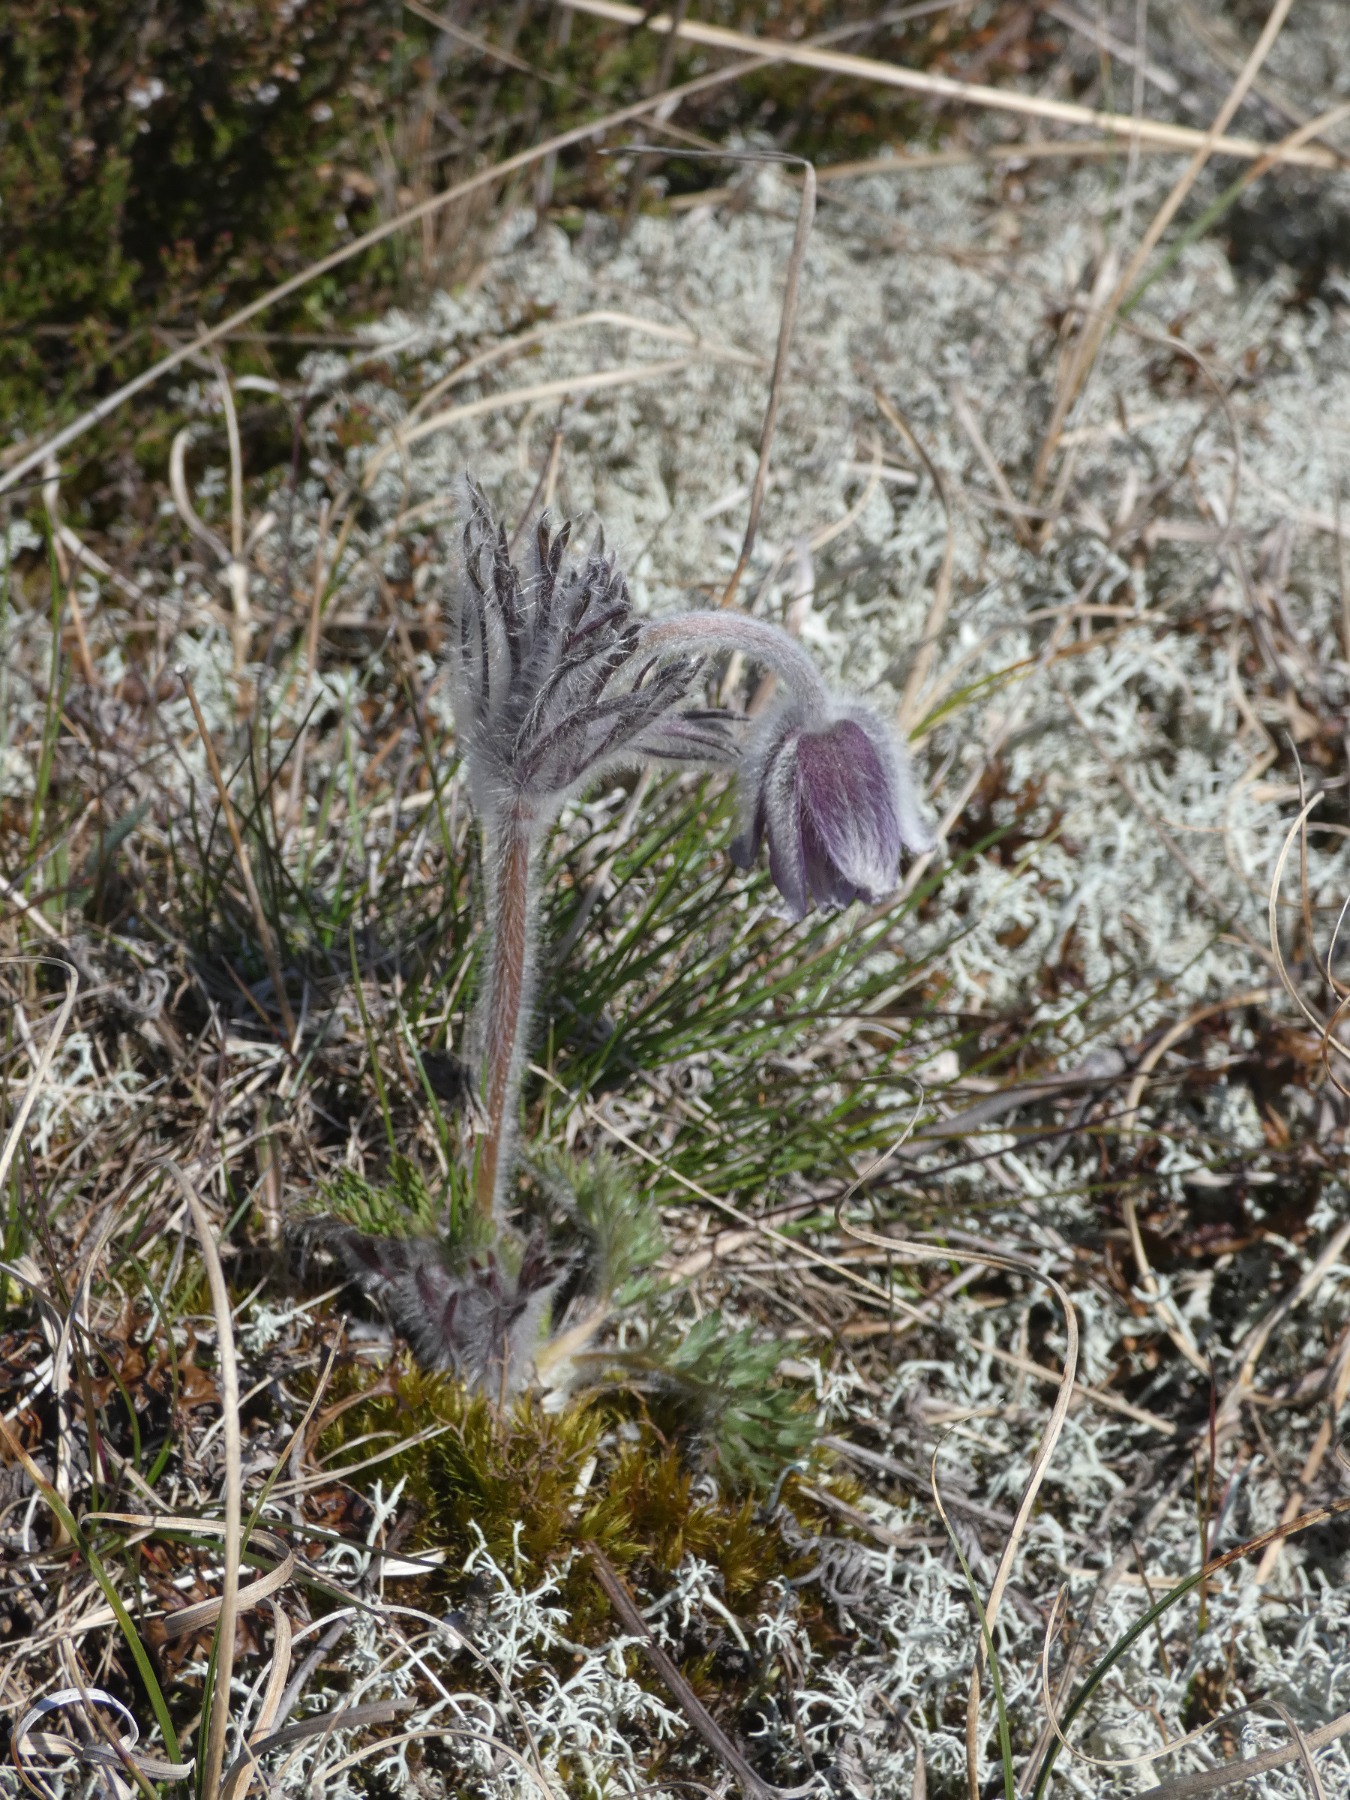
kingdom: Plantae
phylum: Tracheophyta
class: Magnoliopsida
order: Ranunculales
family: Ranunculaceae
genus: Pulsatilla
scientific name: Pulsatilla pratensis
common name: Nikkende kobjælde
